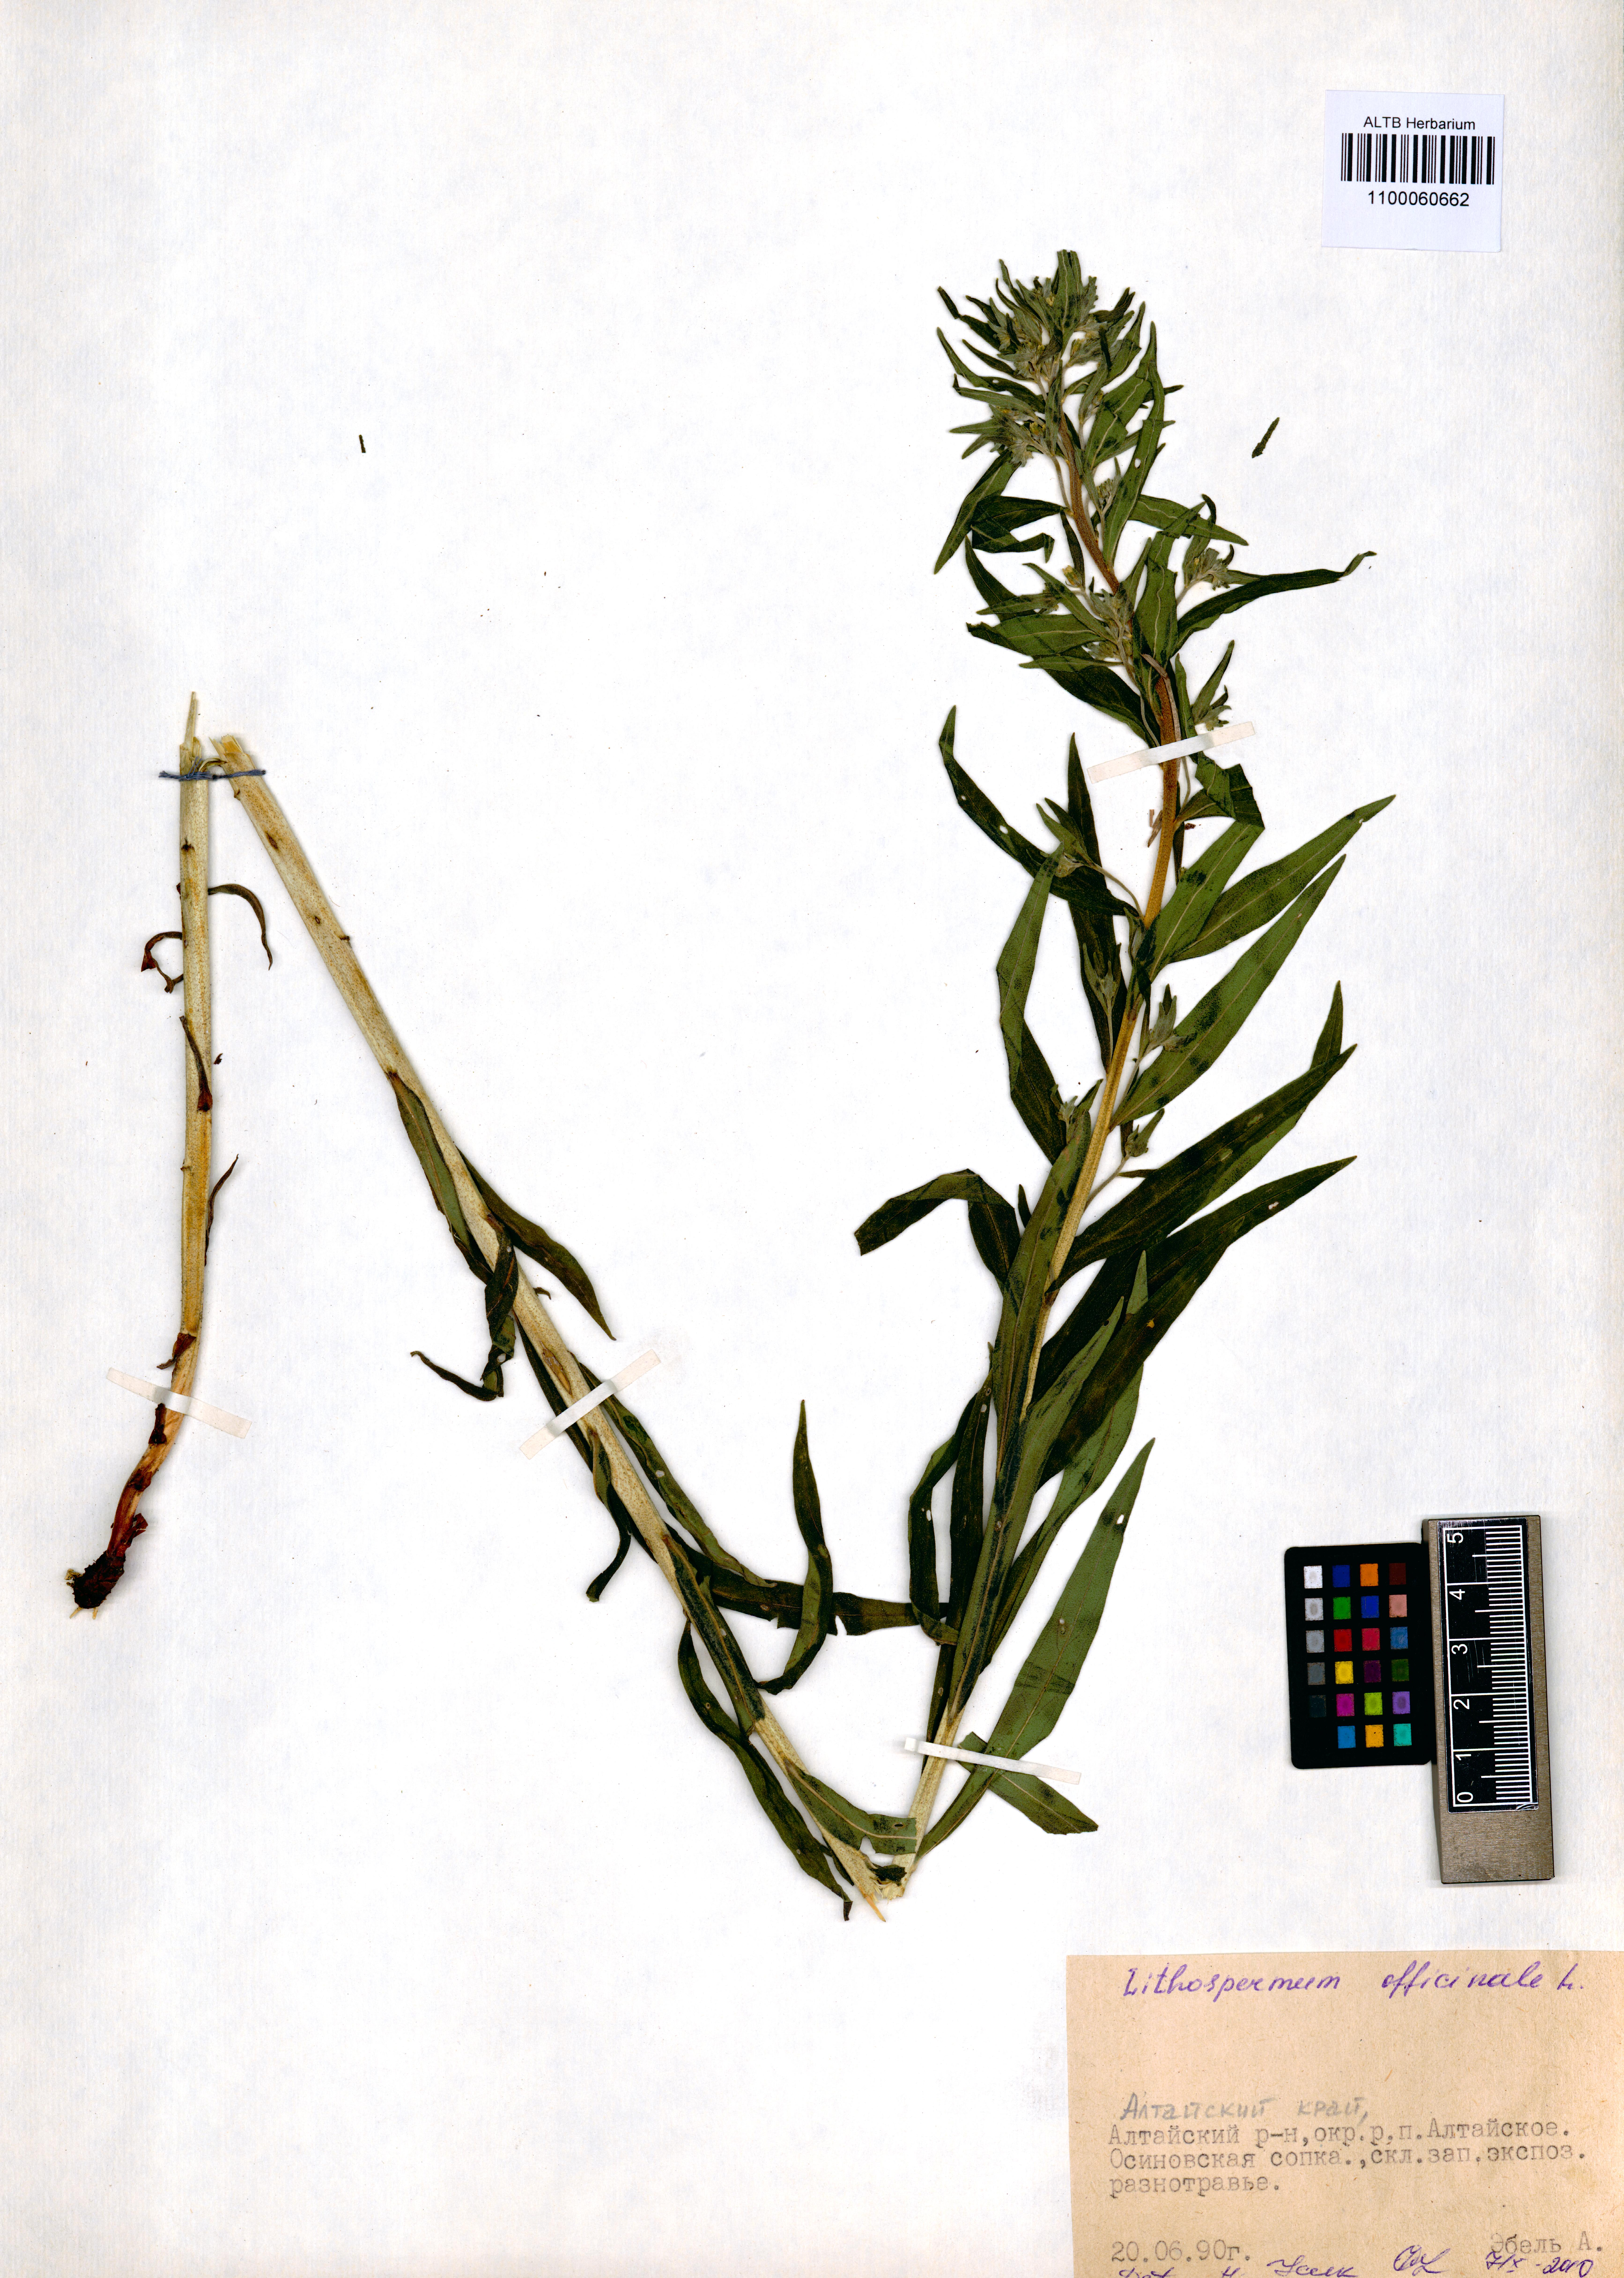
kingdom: Plantae
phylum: Tracheophyta
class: Magnoliopsida
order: Boraginales
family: Boraginaceae
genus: Lithospermum
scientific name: Lithospermum officinale
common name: Common gromwell
